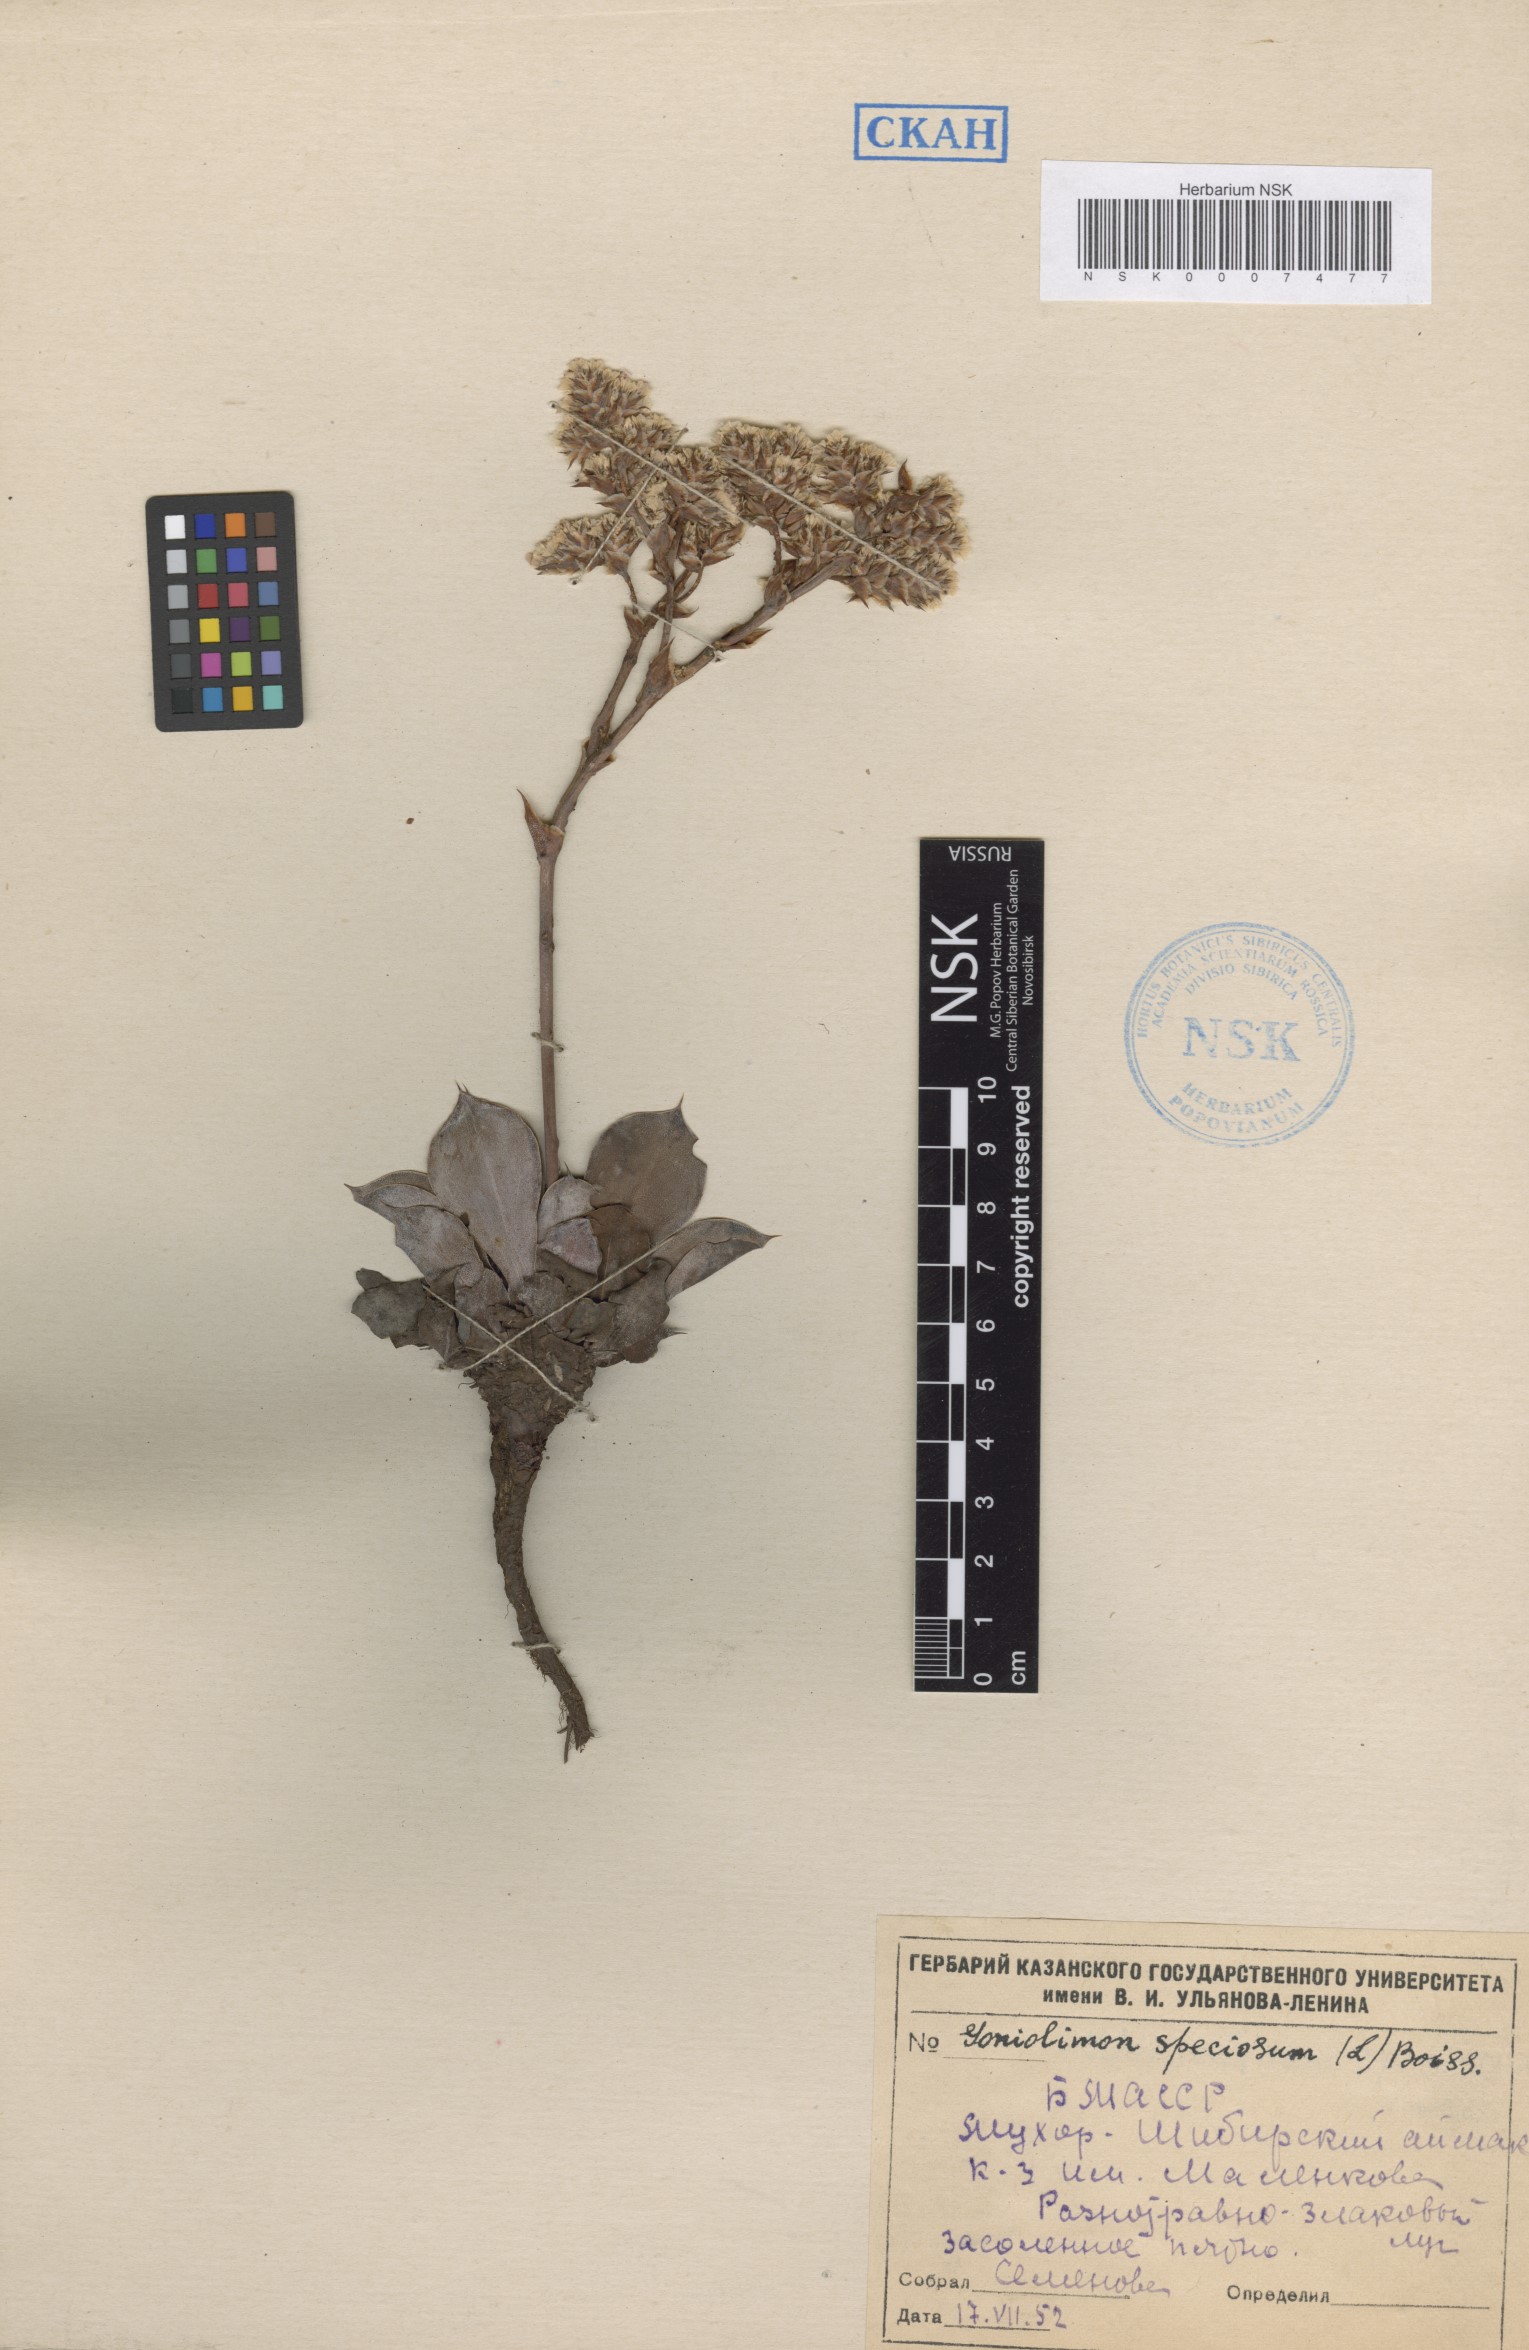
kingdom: Plantae
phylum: Tracheophyta
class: Magnoliopsida
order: Caryophyllales
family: Plumbaginaceae
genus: Goniolimon
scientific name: Goniolimon speciosum
